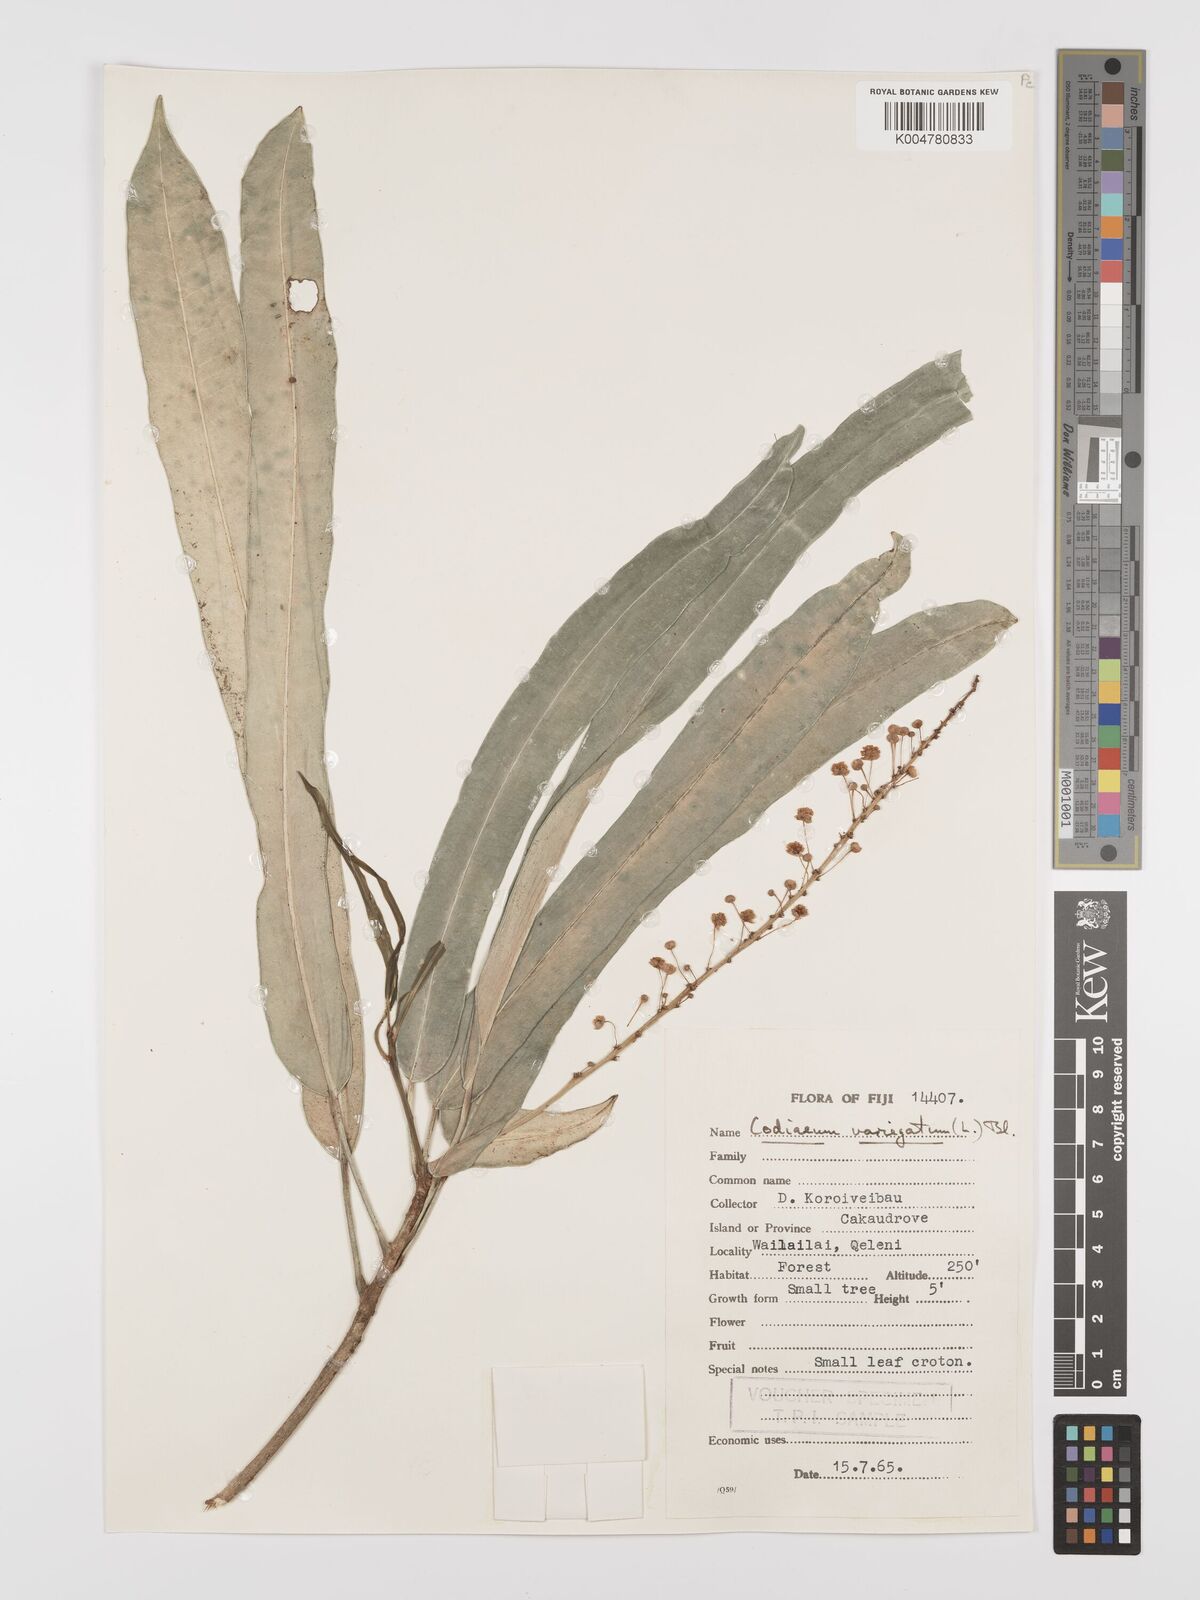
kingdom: Plantae
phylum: Tracheophyta
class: Magnoliopsida
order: Malpighiales
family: Euphorbiaceae
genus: Codiaeum
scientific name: Codiaeum variegatum
